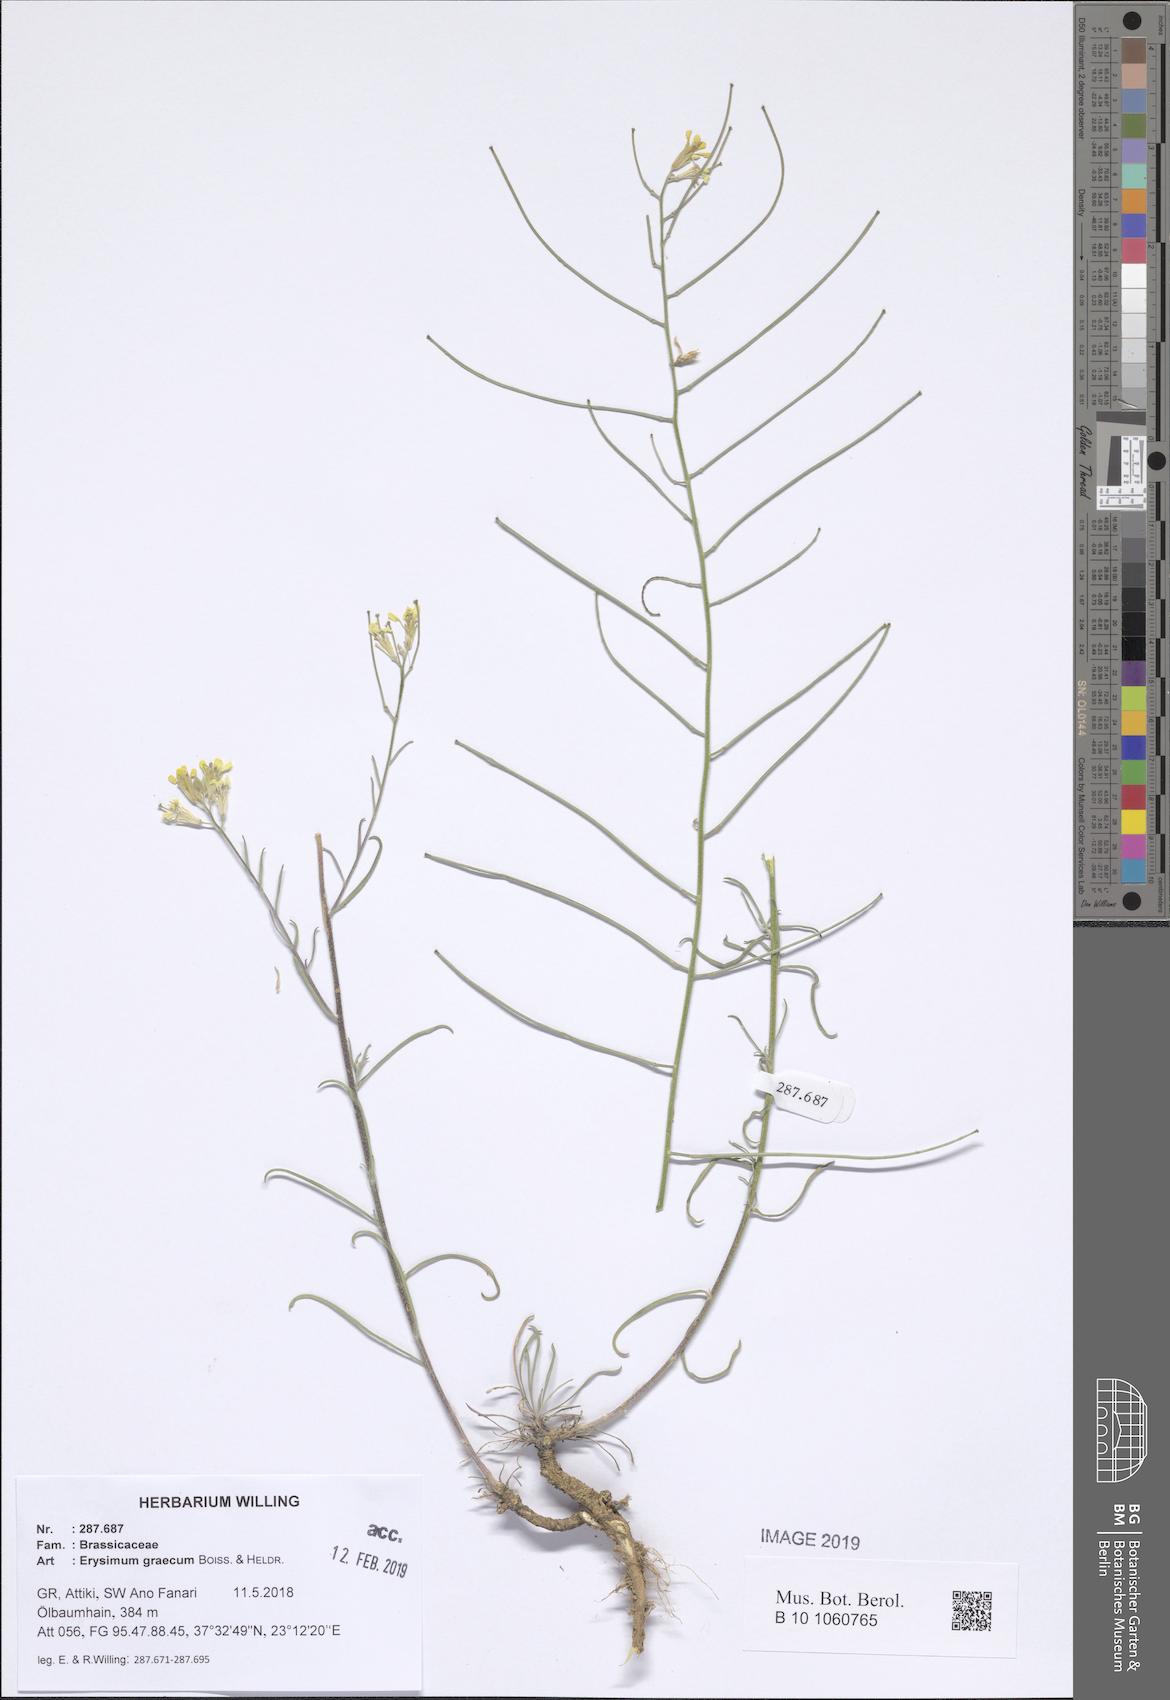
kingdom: Plantae
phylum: Tracheophyta
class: Magnoliopsida
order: Brassicales
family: Brassicaceae
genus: Erysimum
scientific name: Erysimum graecum
